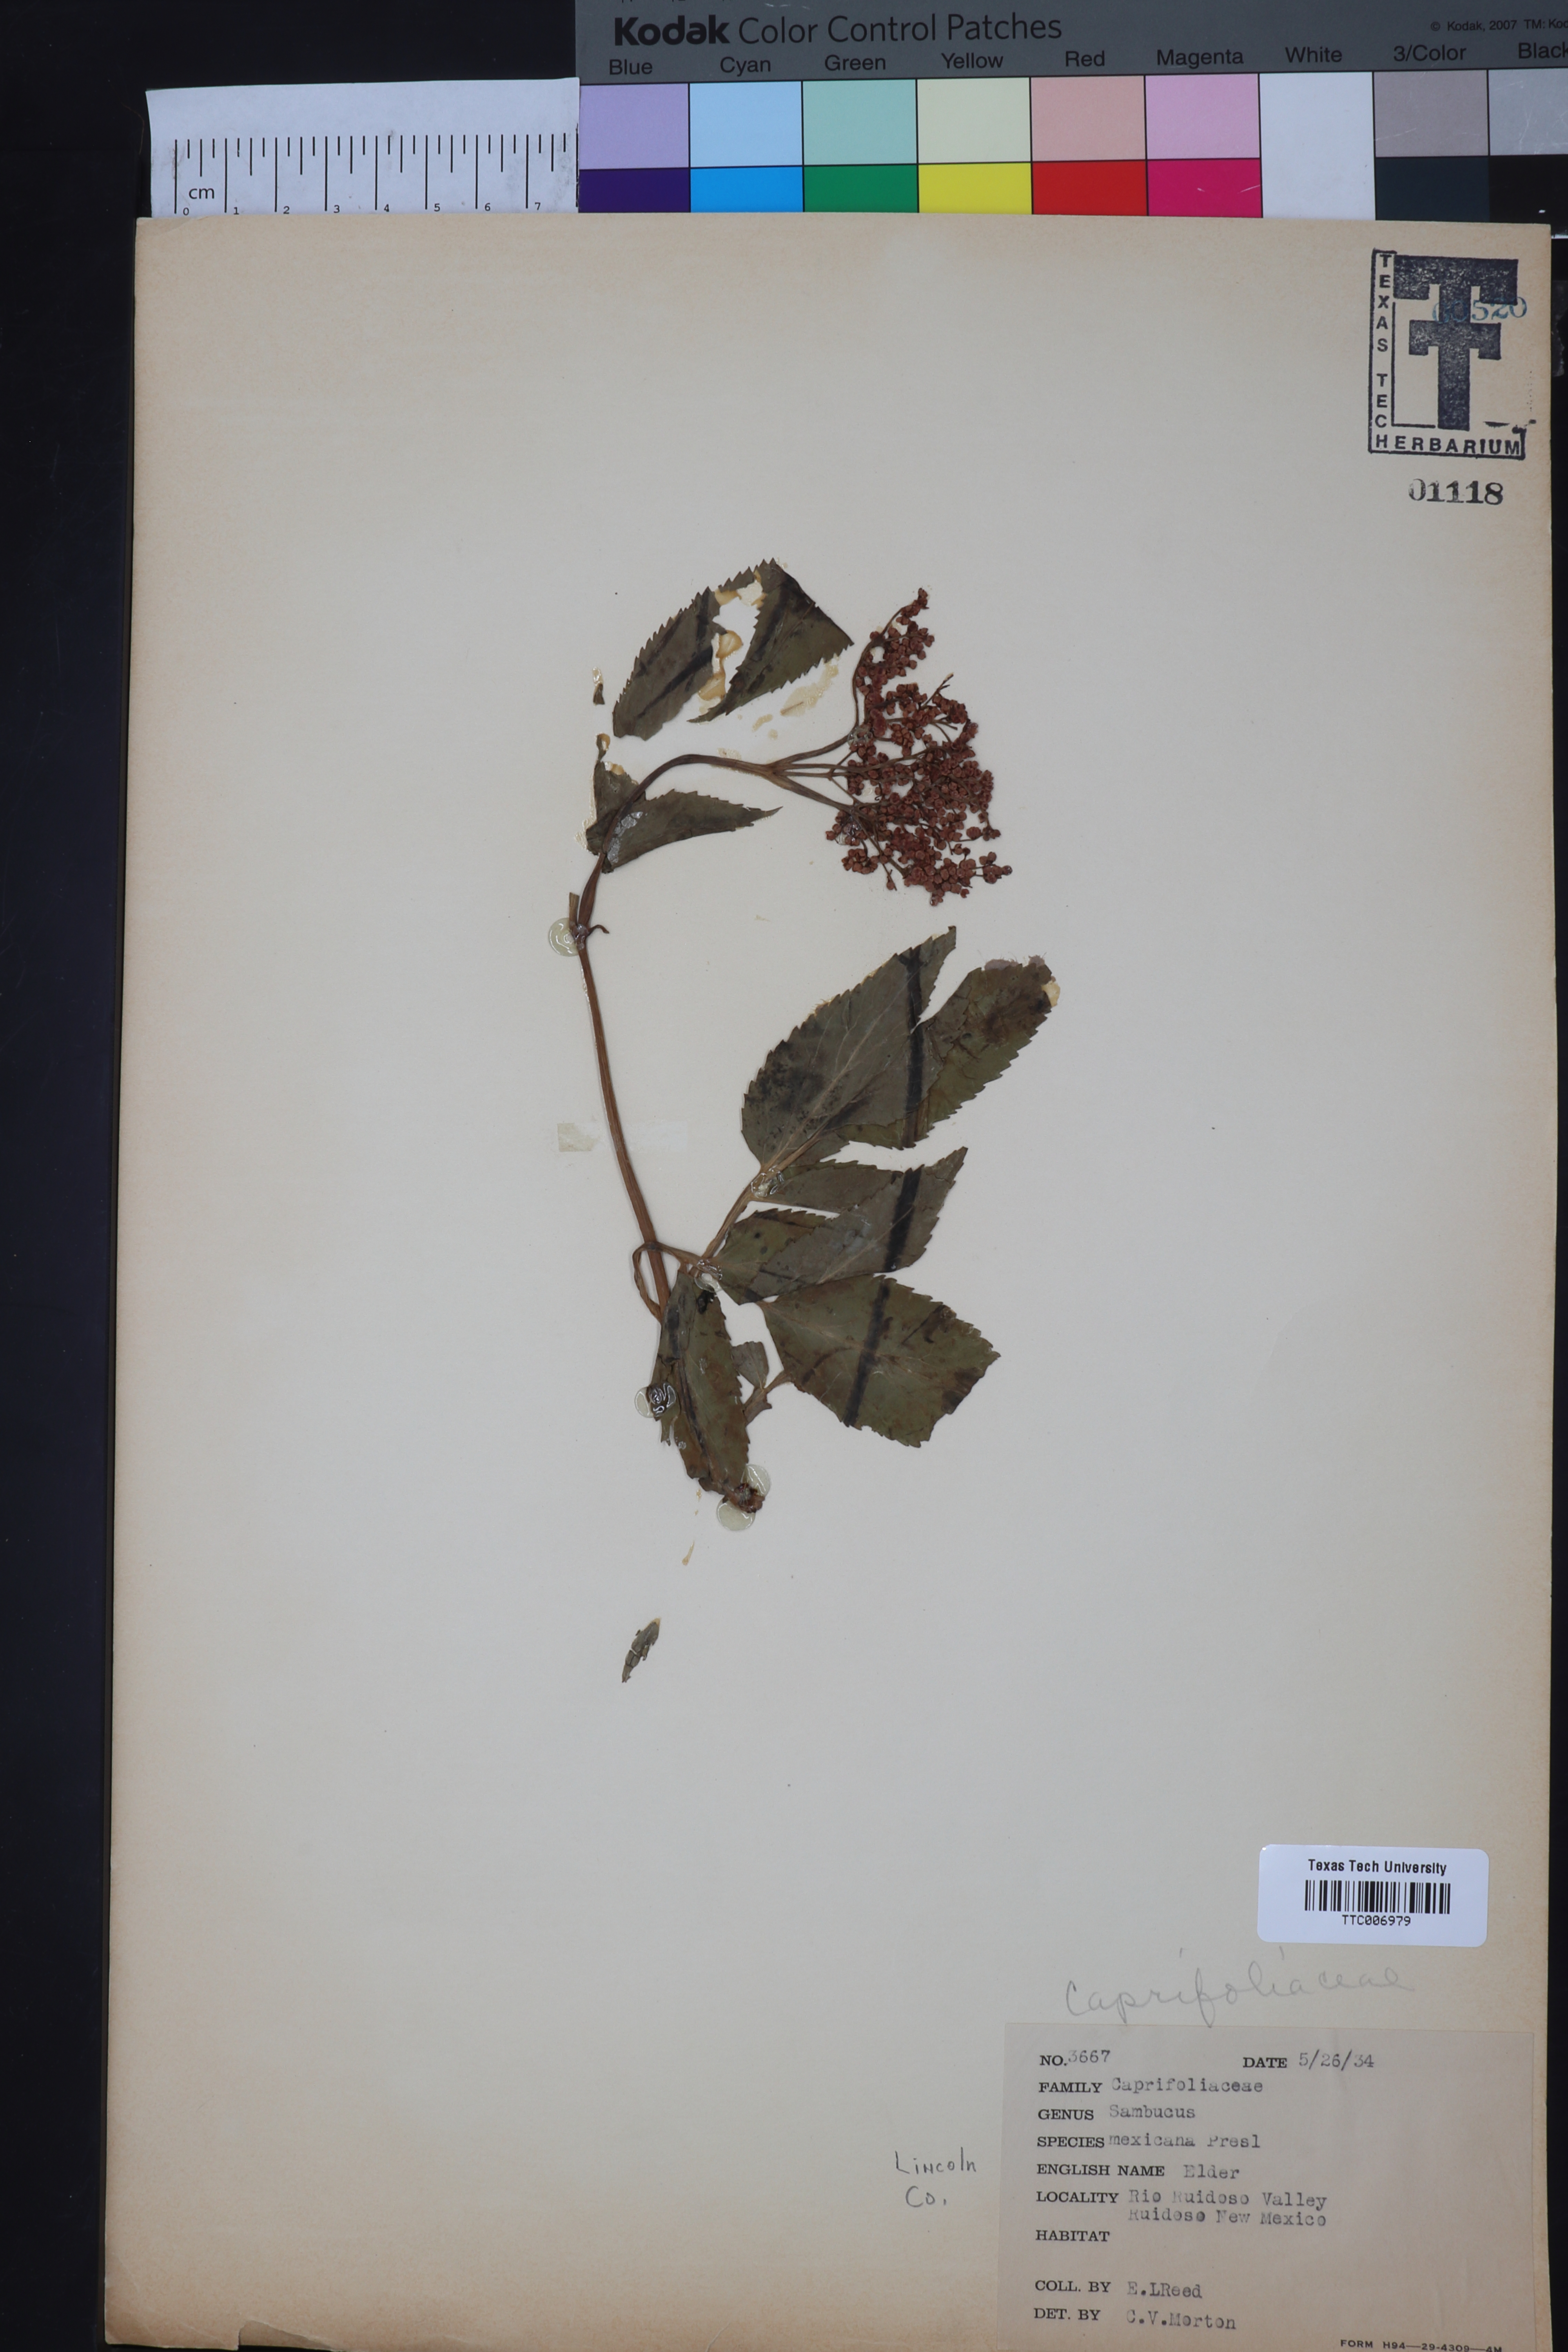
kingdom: Plantae
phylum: Tracheophyta
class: Magnoliopsida
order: Dipsacales
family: Viburnaceae
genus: Sambucus
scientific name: Sambucus mexicana
